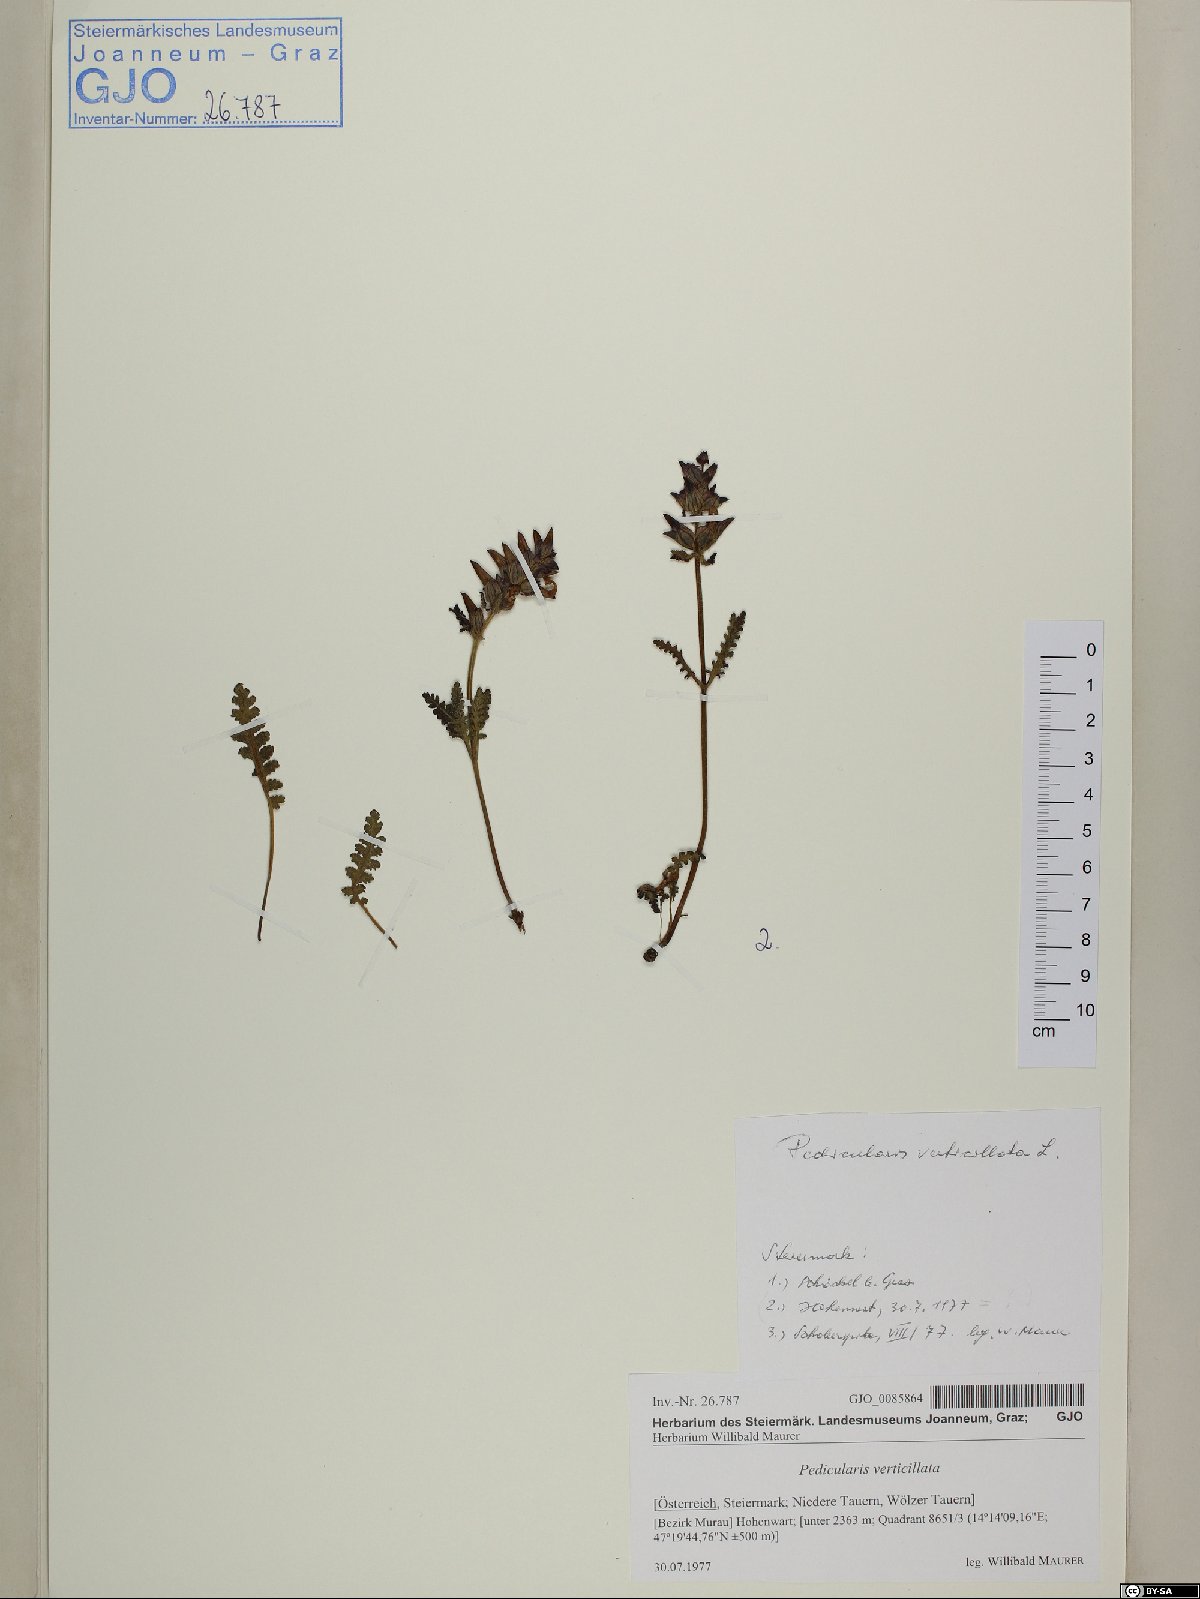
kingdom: Plantae
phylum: Tracheophyta
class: Magnoliopsida
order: Lamiales
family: Orobanchaceae
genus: Pedicularis
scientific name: Pedicularis verticillata
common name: Whorled lousewort
